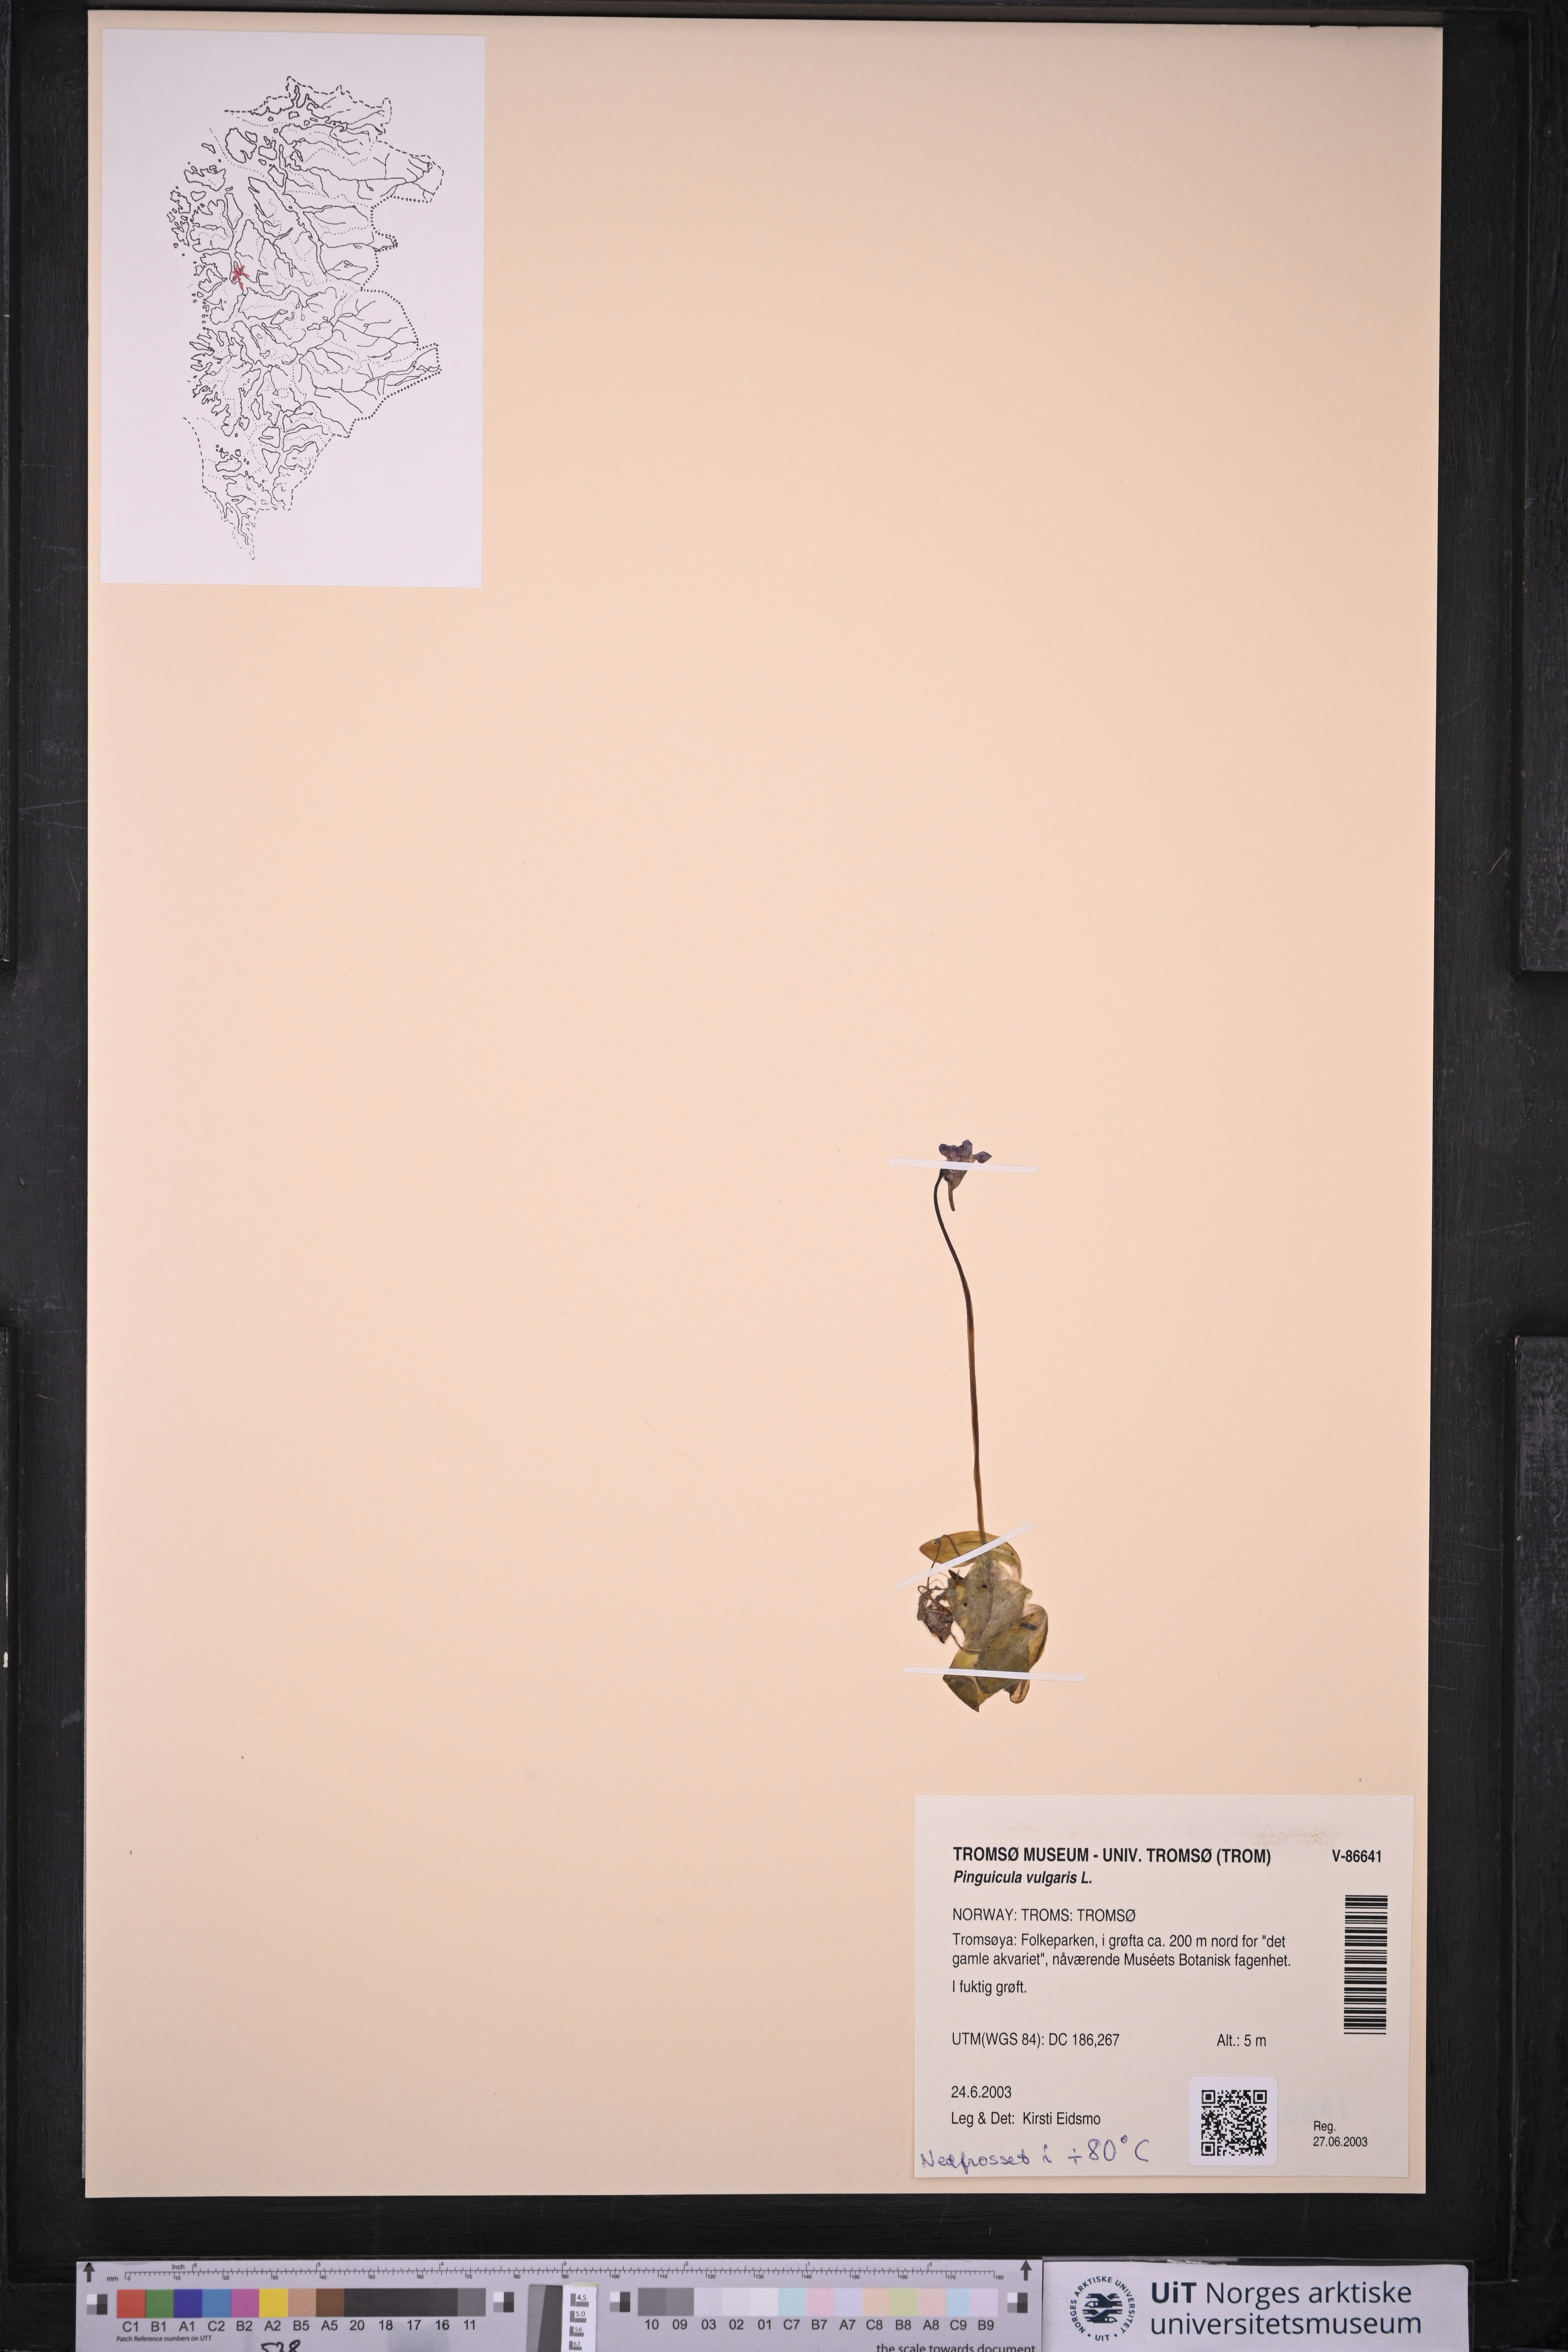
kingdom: Plantae
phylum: Tracheophyta
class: Magnoliopsida
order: Lamiales
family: Lentibulariaceae
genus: Pinguicula
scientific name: Pinguicula vulgaris
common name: Common butterwort
